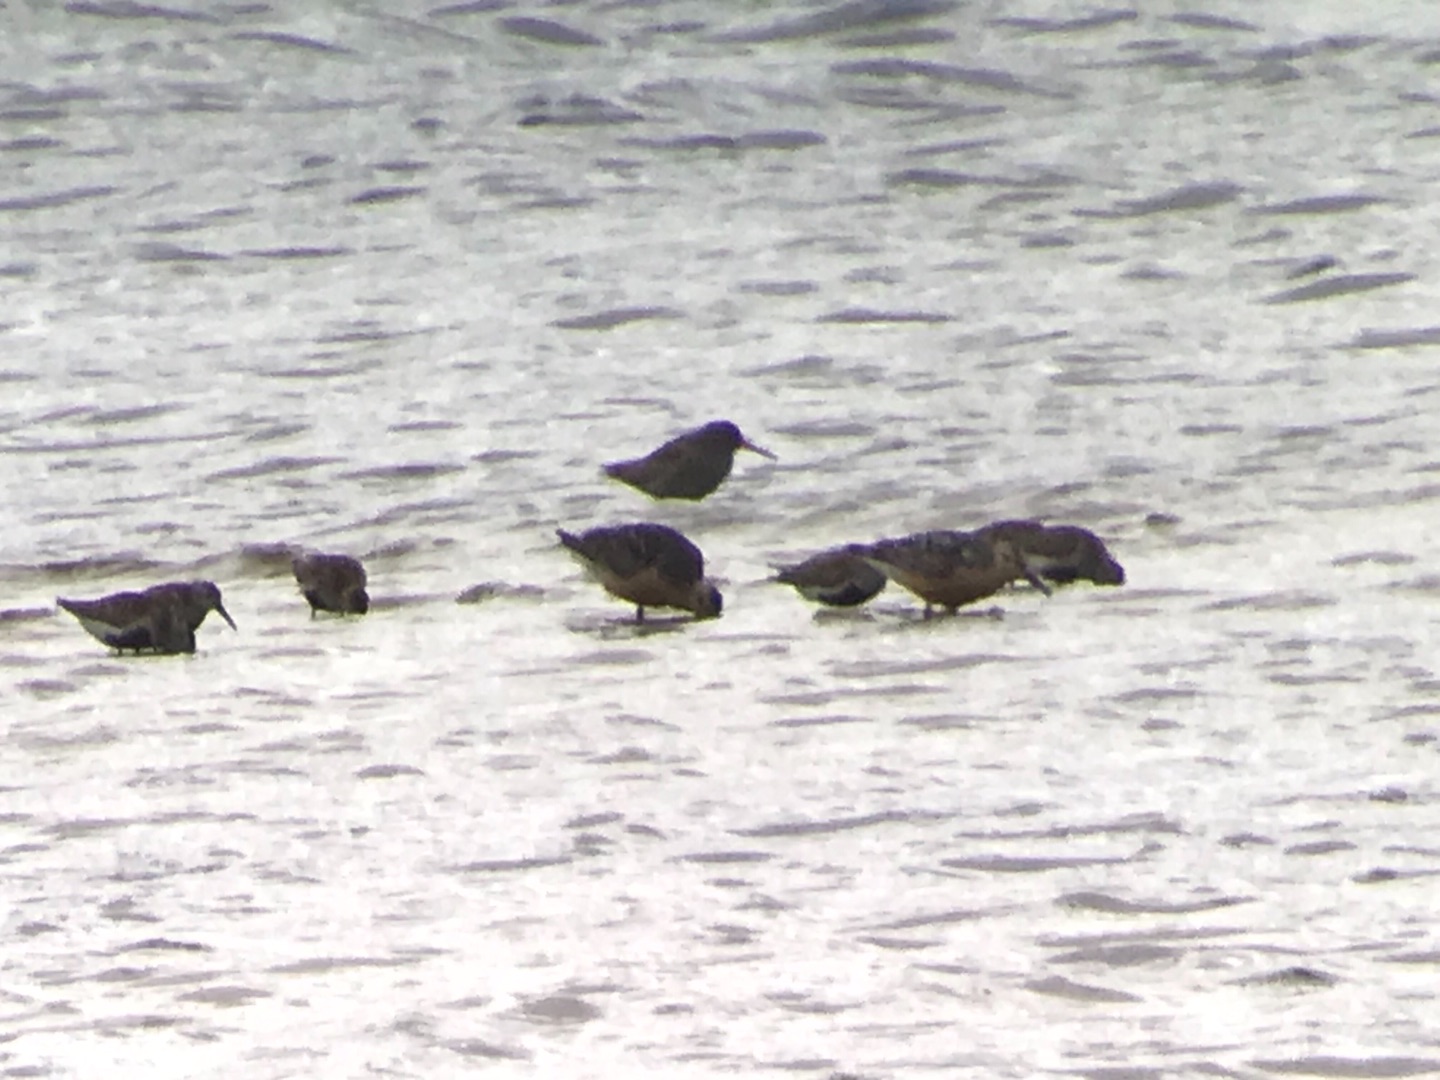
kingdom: Animalia
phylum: Chordata
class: Aves
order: Charadriiformes
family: Scolopacidae
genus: Calidris
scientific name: Calidris canutus
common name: Islandsk ryle
